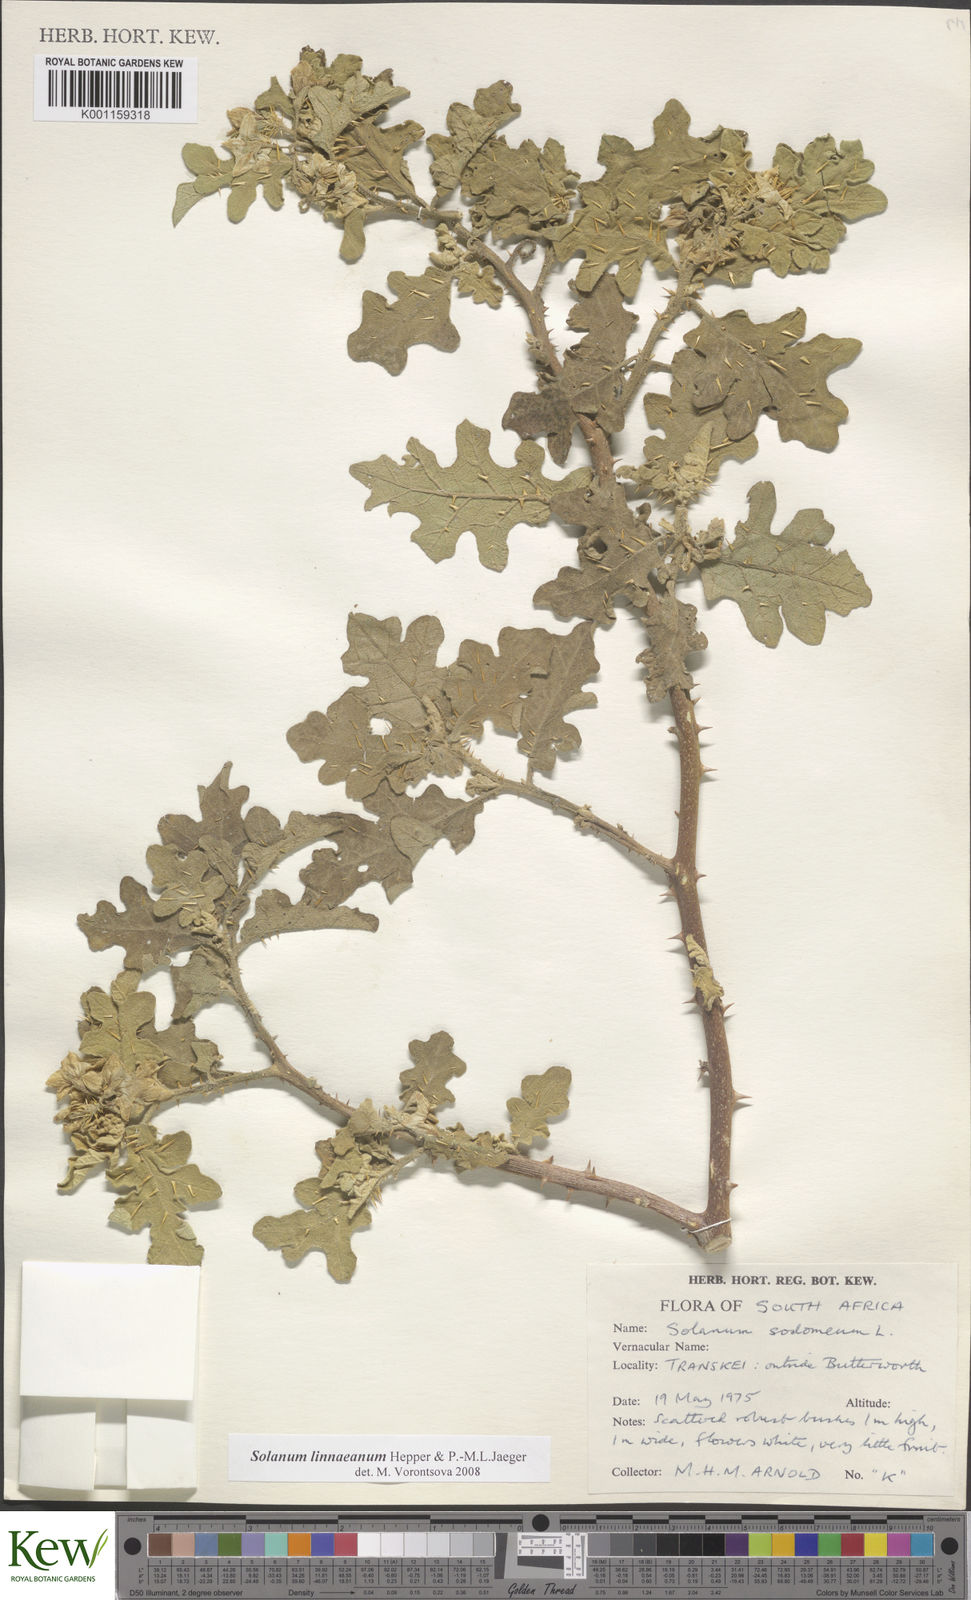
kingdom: Plantae
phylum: Tracheophyta
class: Magnoliopsida
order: Solanales
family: Solanaceae
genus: Solanum
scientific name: Solanum linnaeanum
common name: Nightshade
